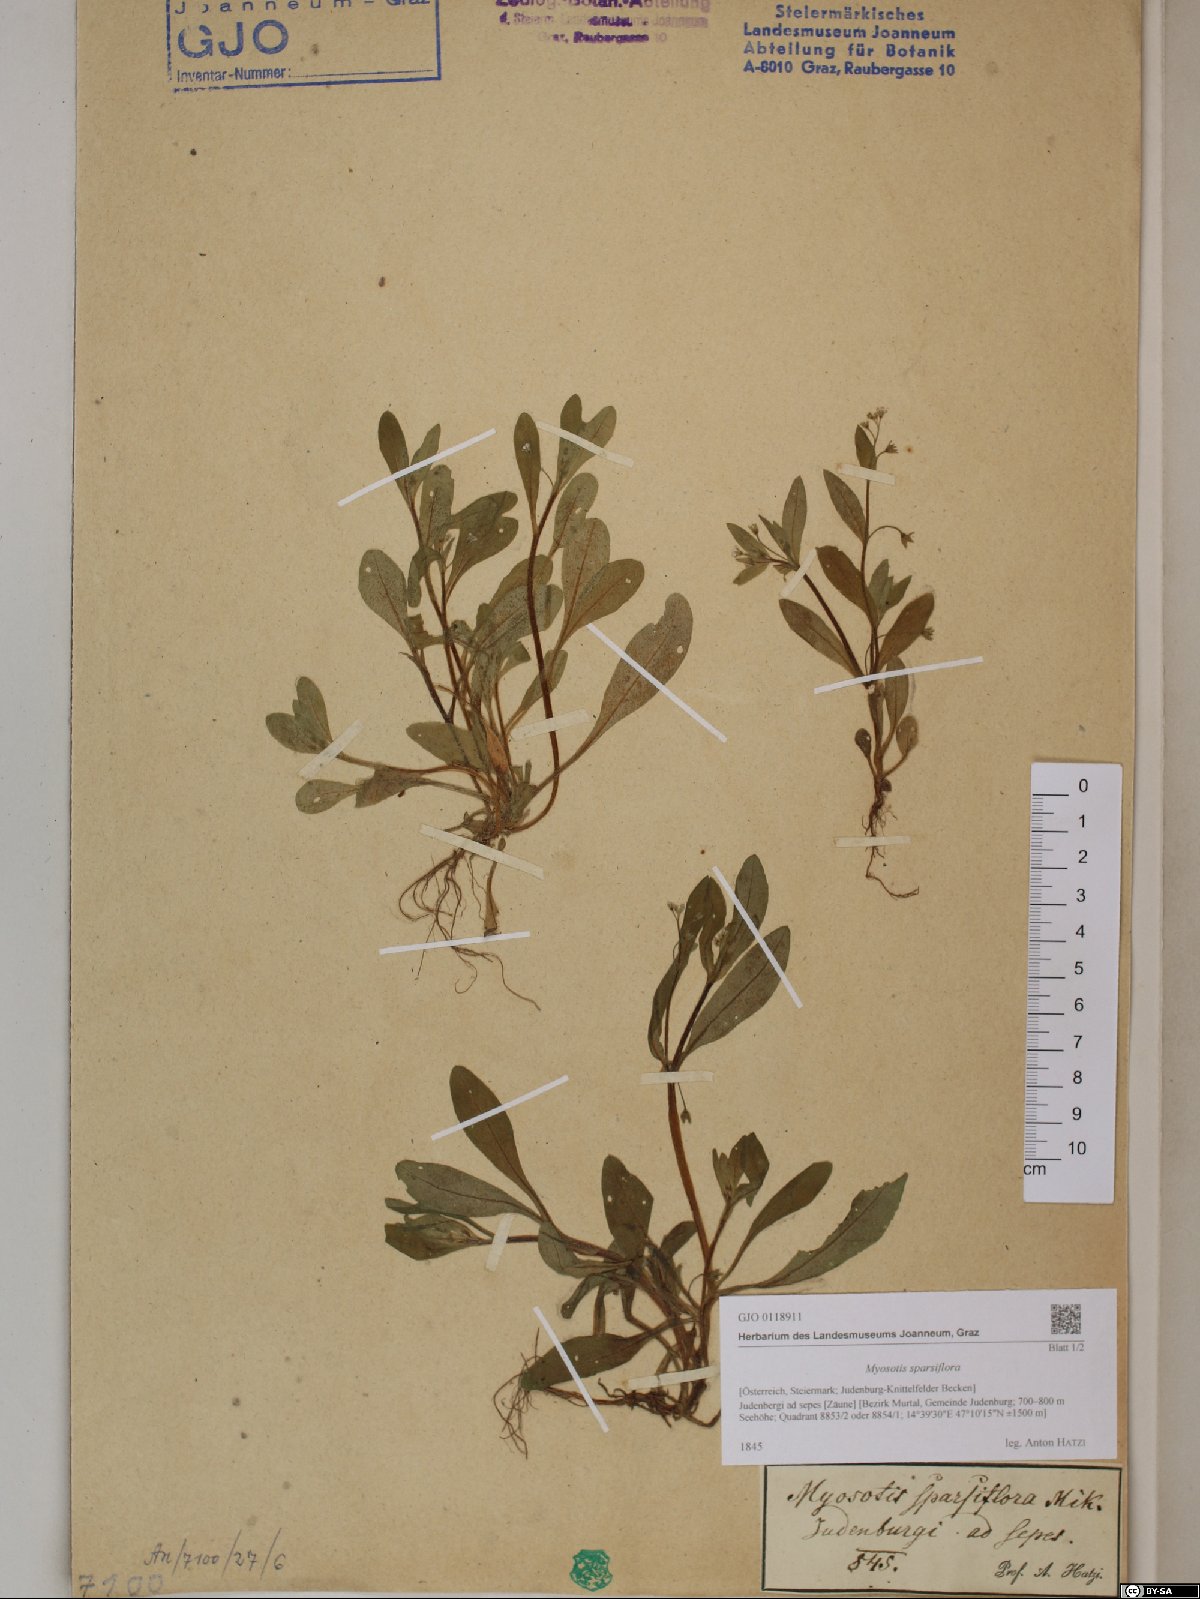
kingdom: Plantae
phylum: Tracheophyta
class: Magnoliopsida
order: Boraginales
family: Boraginaceae
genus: Myosotis
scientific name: Myosotis sparsiflora
